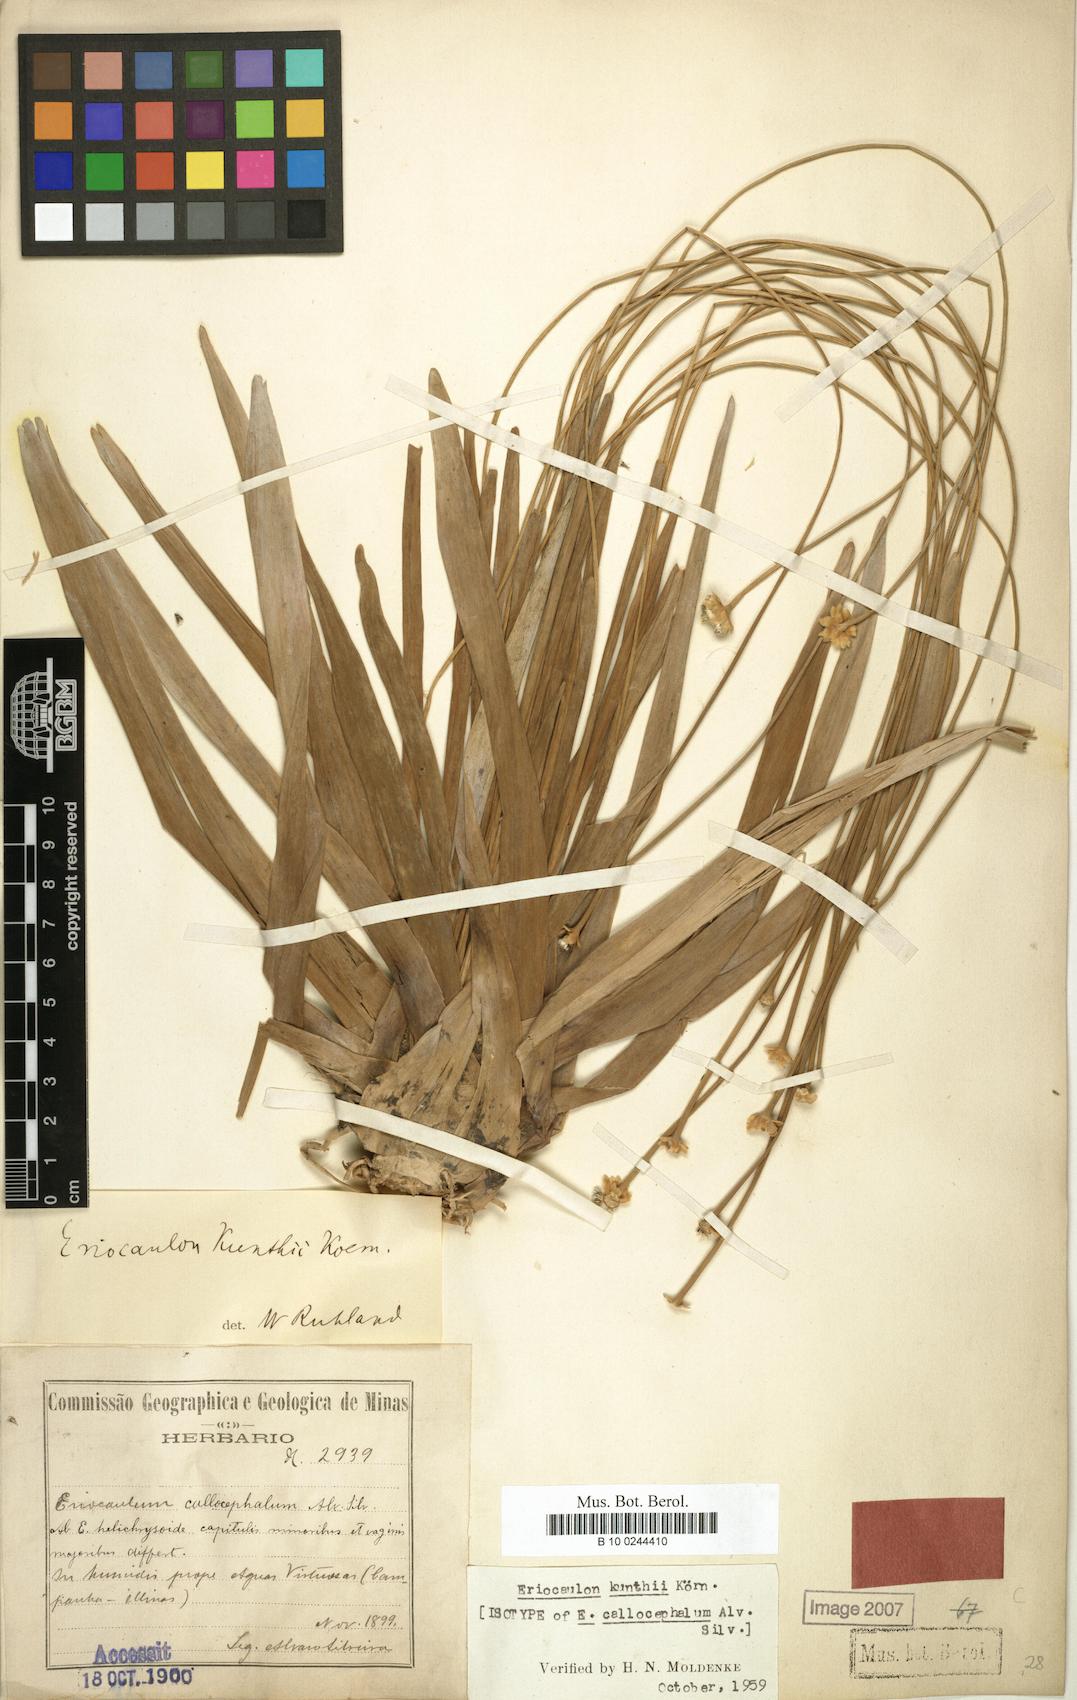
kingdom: Plantae
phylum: Tracheophyta
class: Liliopsida
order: Poales
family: Eriocaulaceae
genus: Eriocaulon
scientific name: Eriocaulon ligulatum
